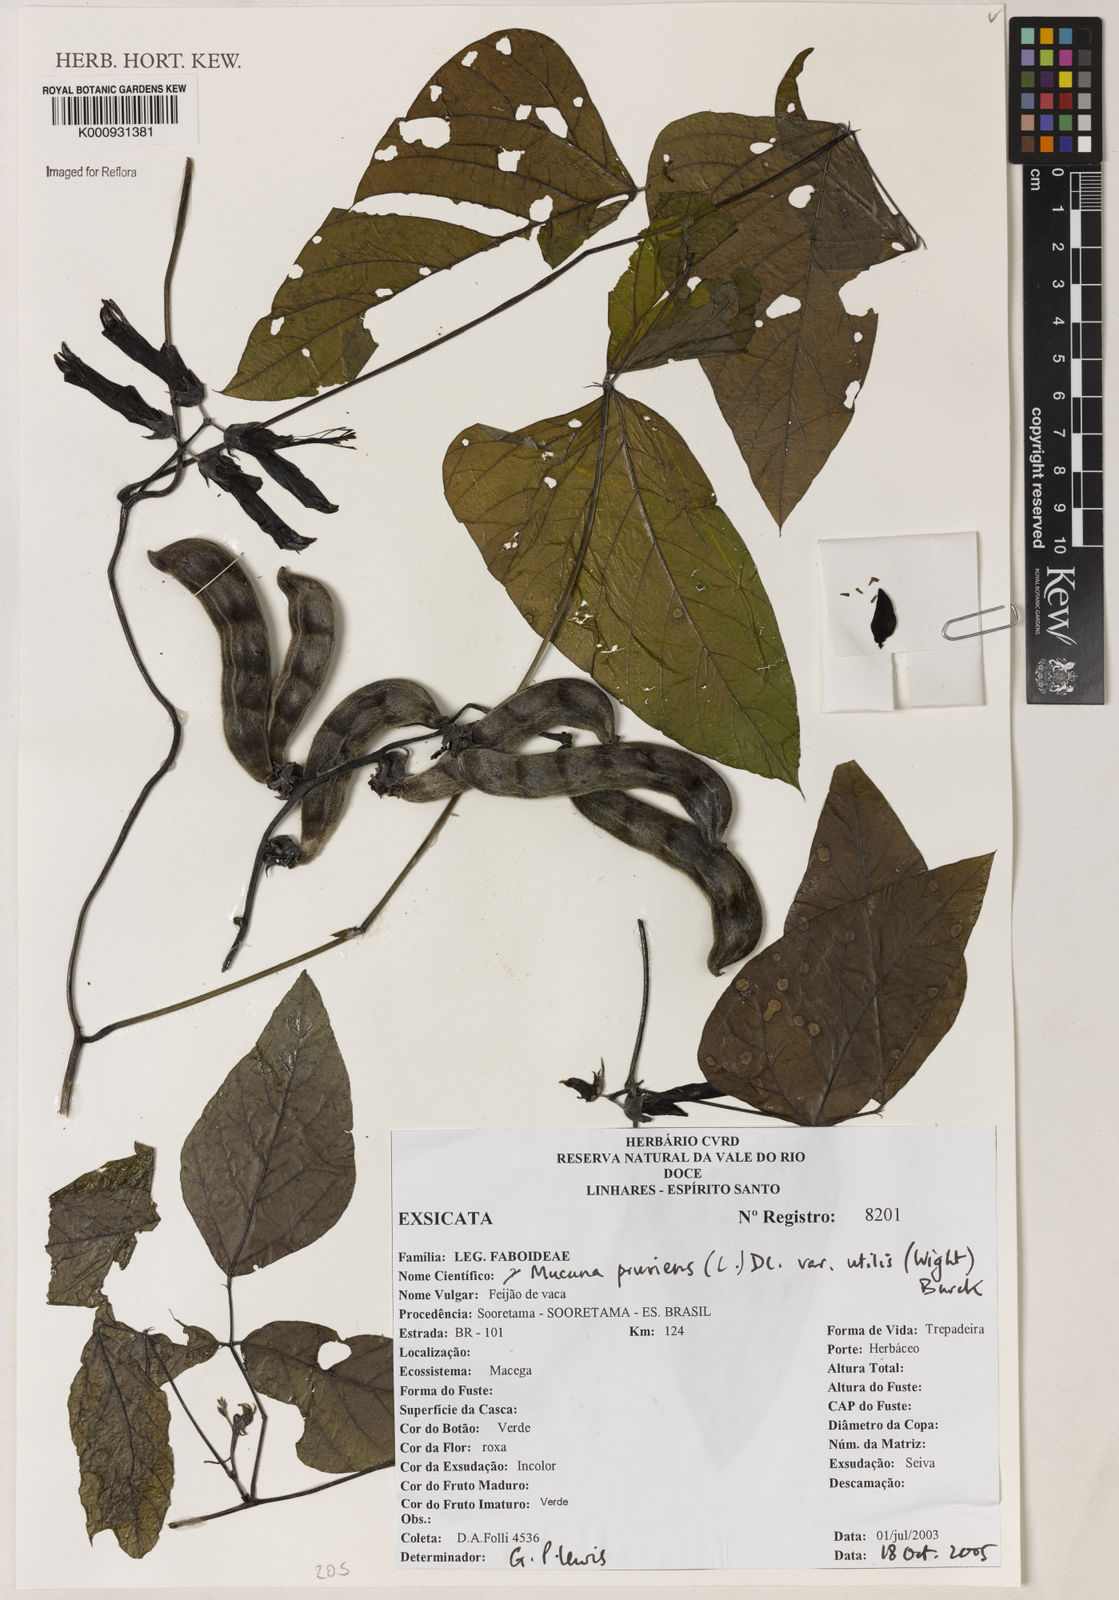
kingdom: Plantae
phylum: Tracheophyta
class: Magnoliopsida
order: Fabales
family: Fabaceae
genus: Mucuna
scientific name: Mucuna pruriens
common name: Cow-itch
